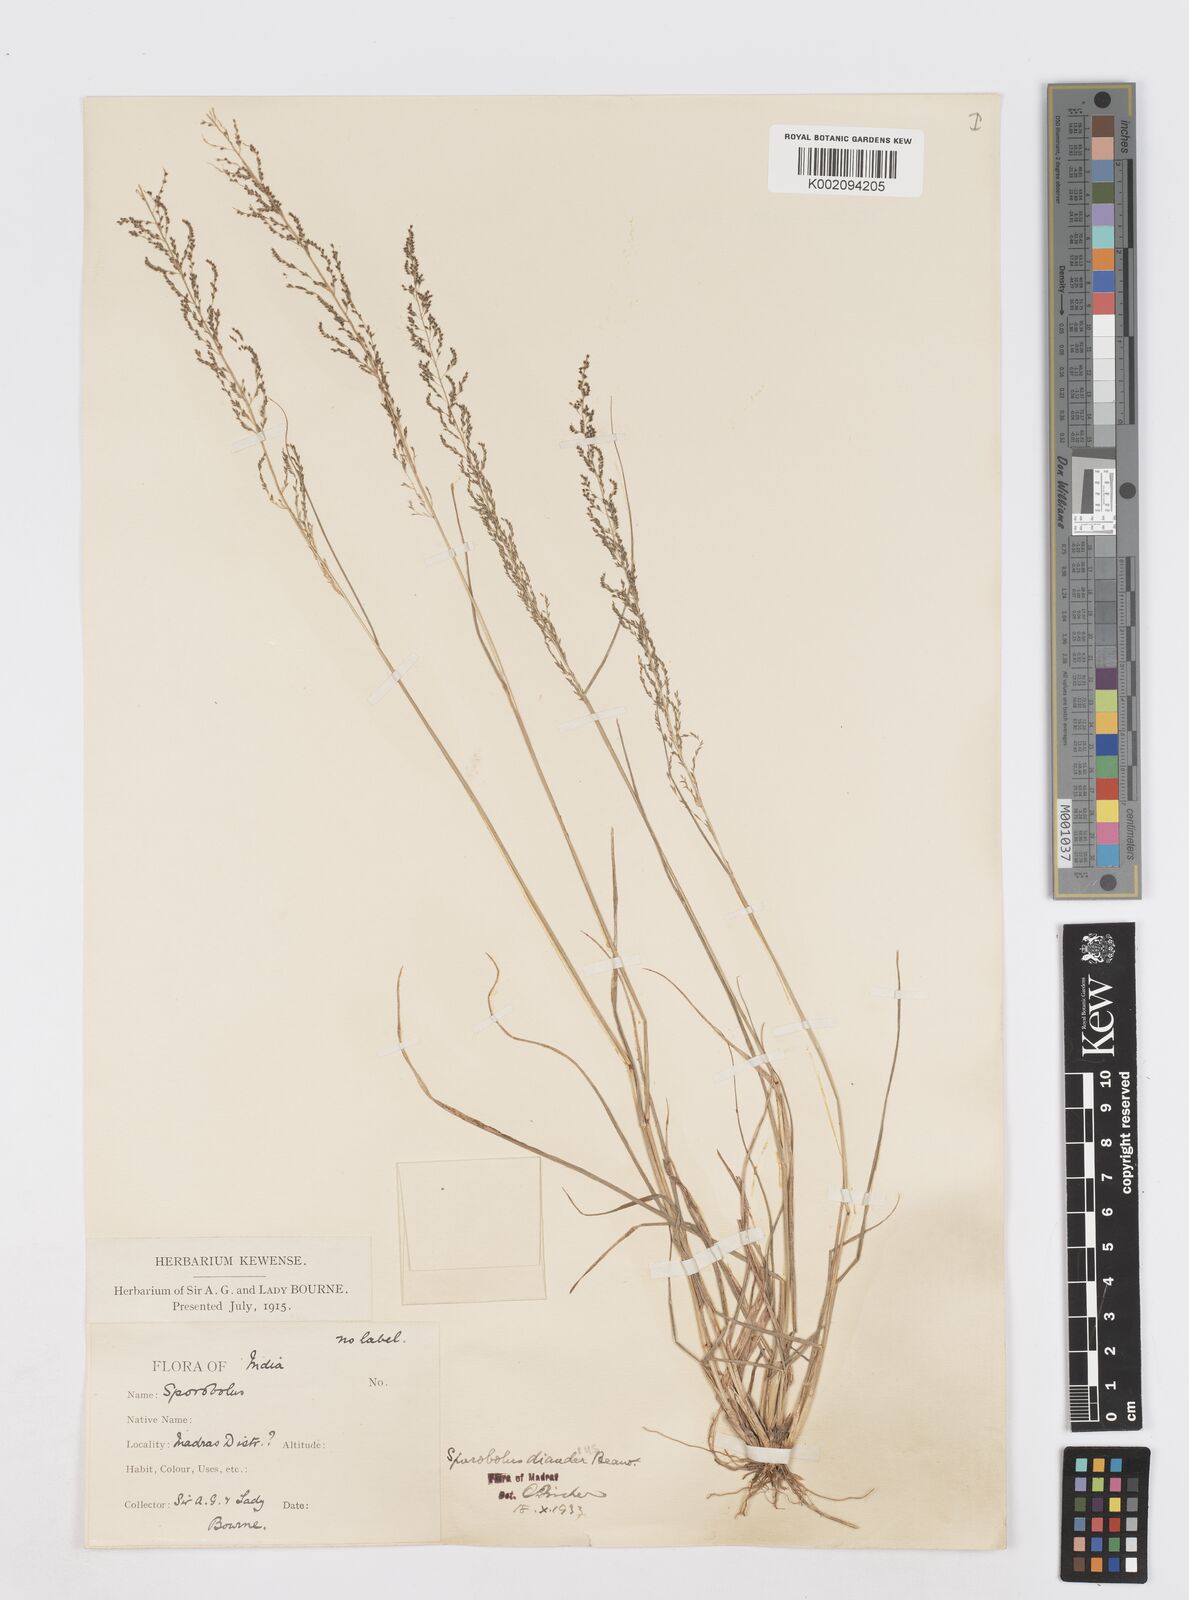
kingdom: Plantae
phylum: Tracheophyta
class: Liliopsida
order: Poales
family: Poaceae
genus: Sporobolus
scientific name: Sporobolus diandrus
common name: Tussock dropseed
